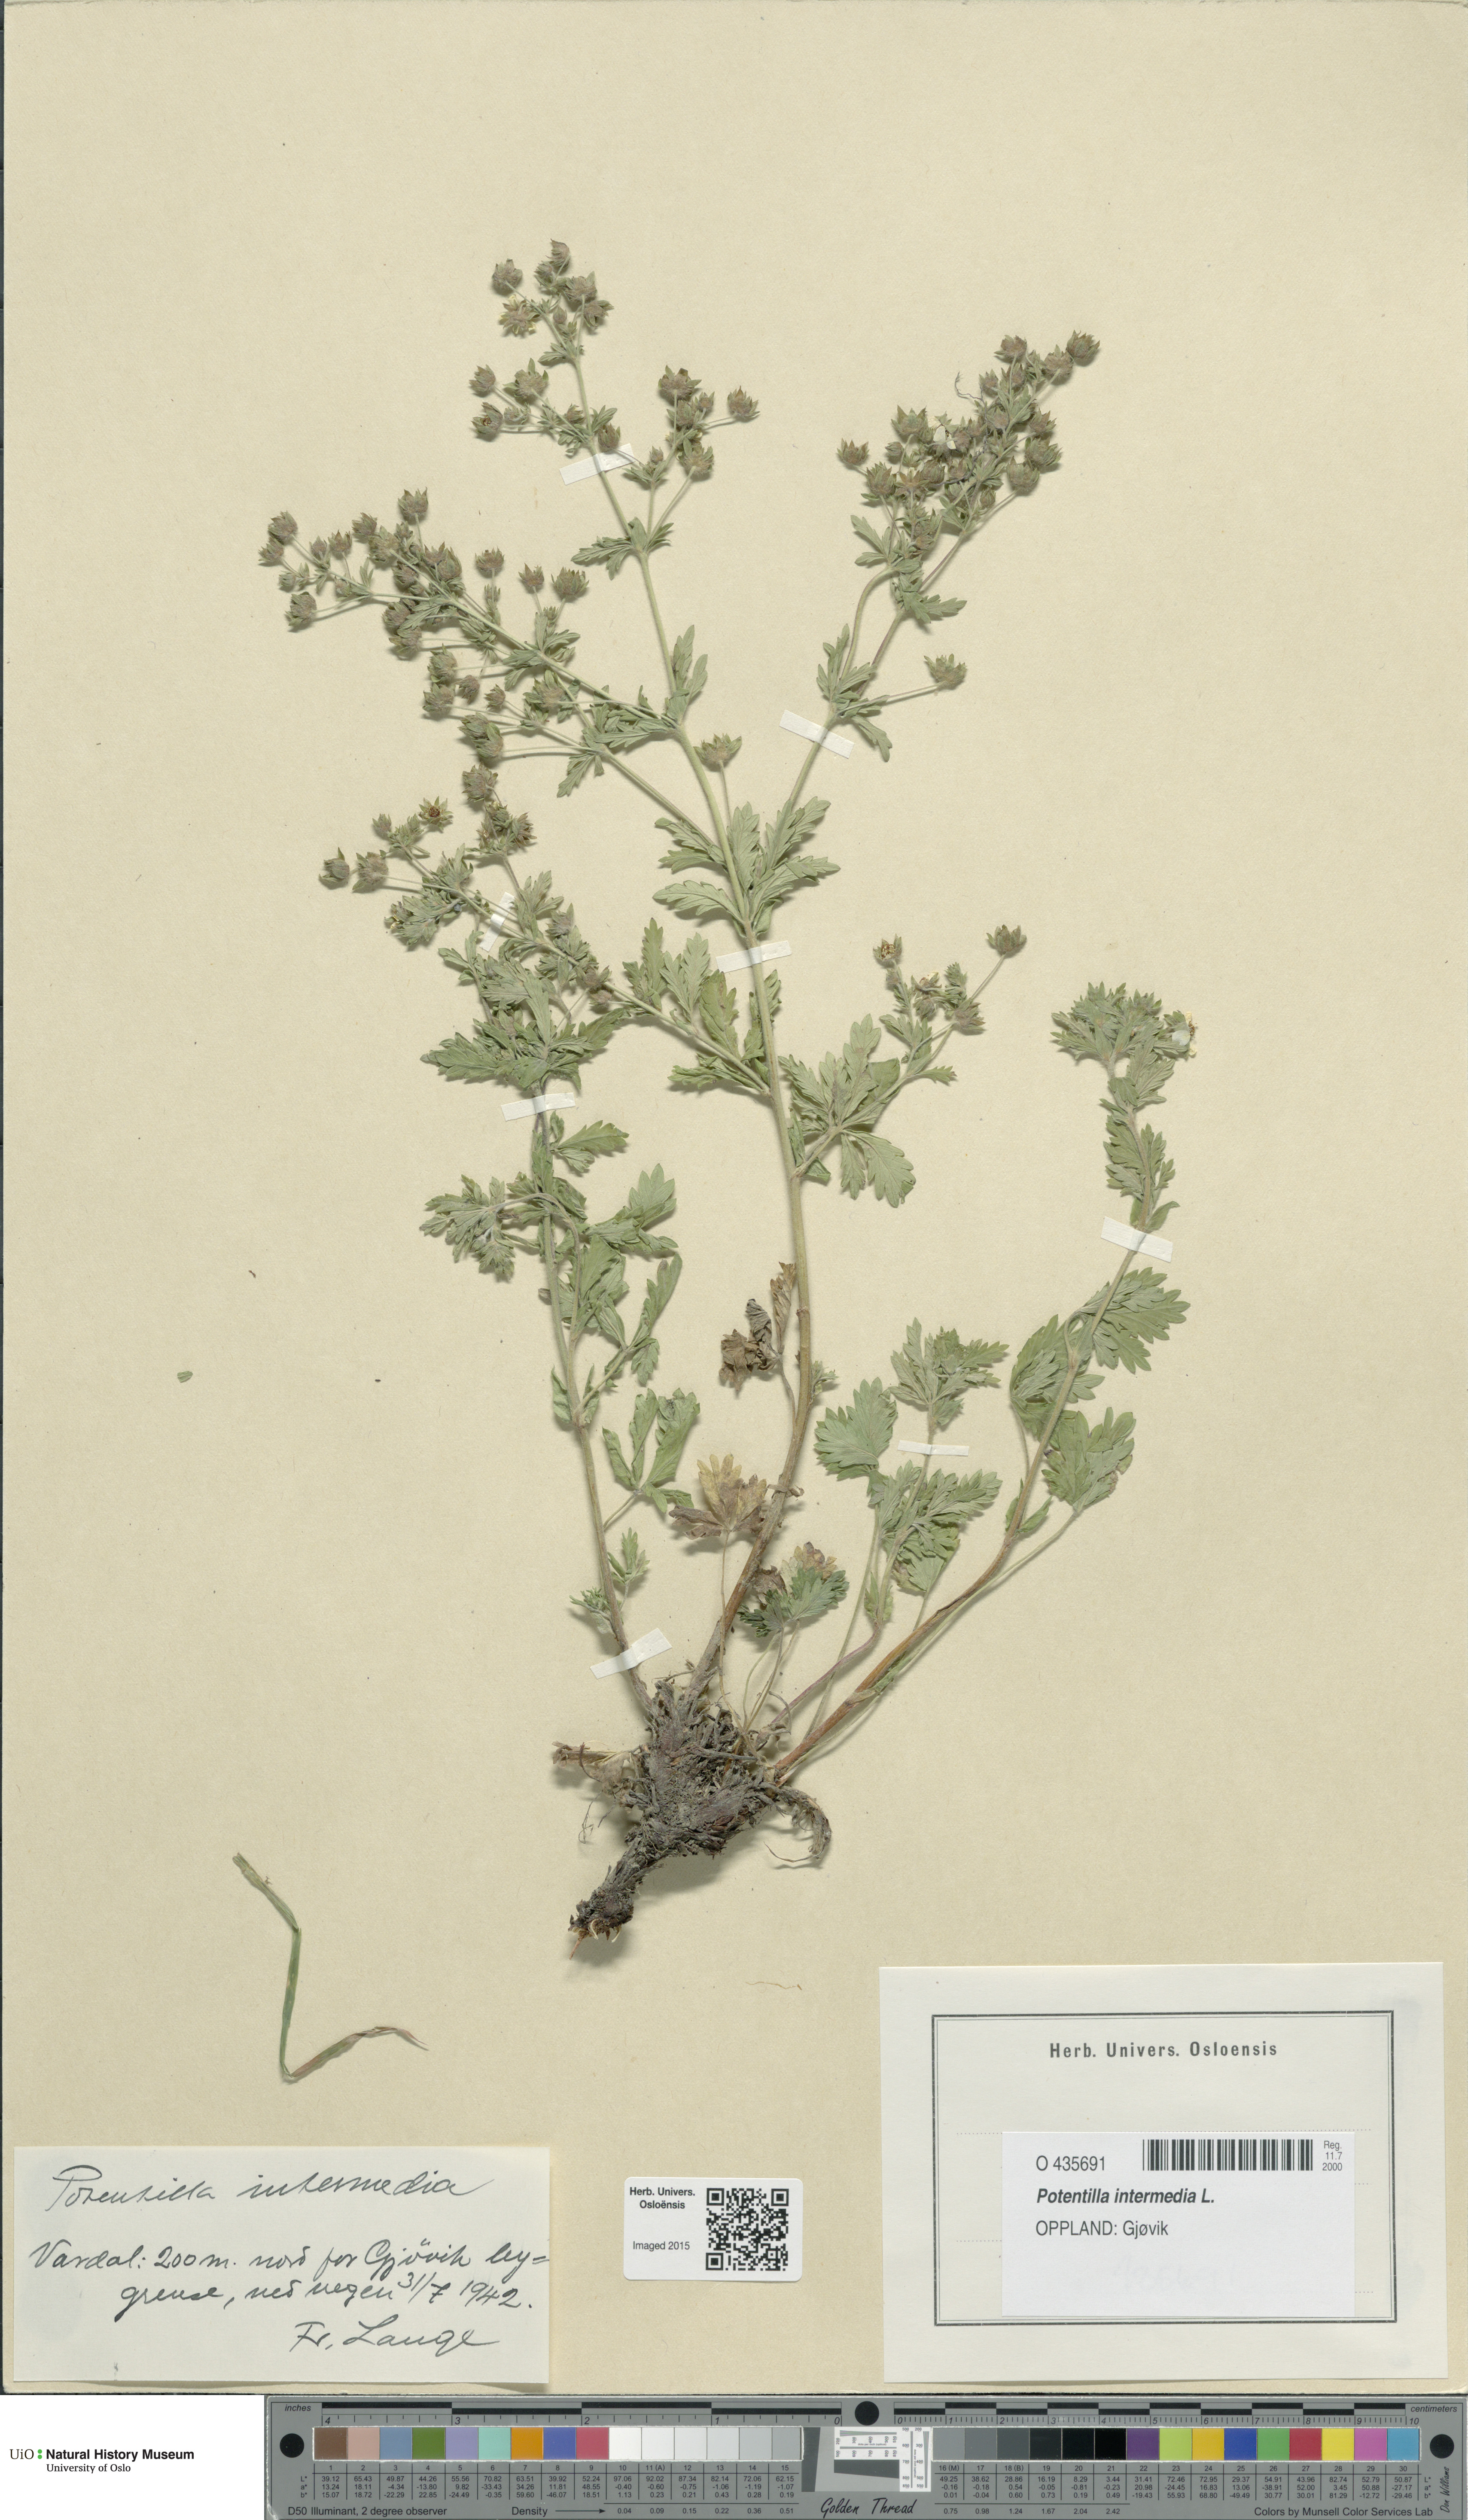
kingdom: Plantae
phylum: Tracheophyta
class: Magnoliopsida
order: Rosales
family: Rosaceae
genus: Potentilla
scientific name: Potentilla intermedia
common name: Downy cinquefoil
